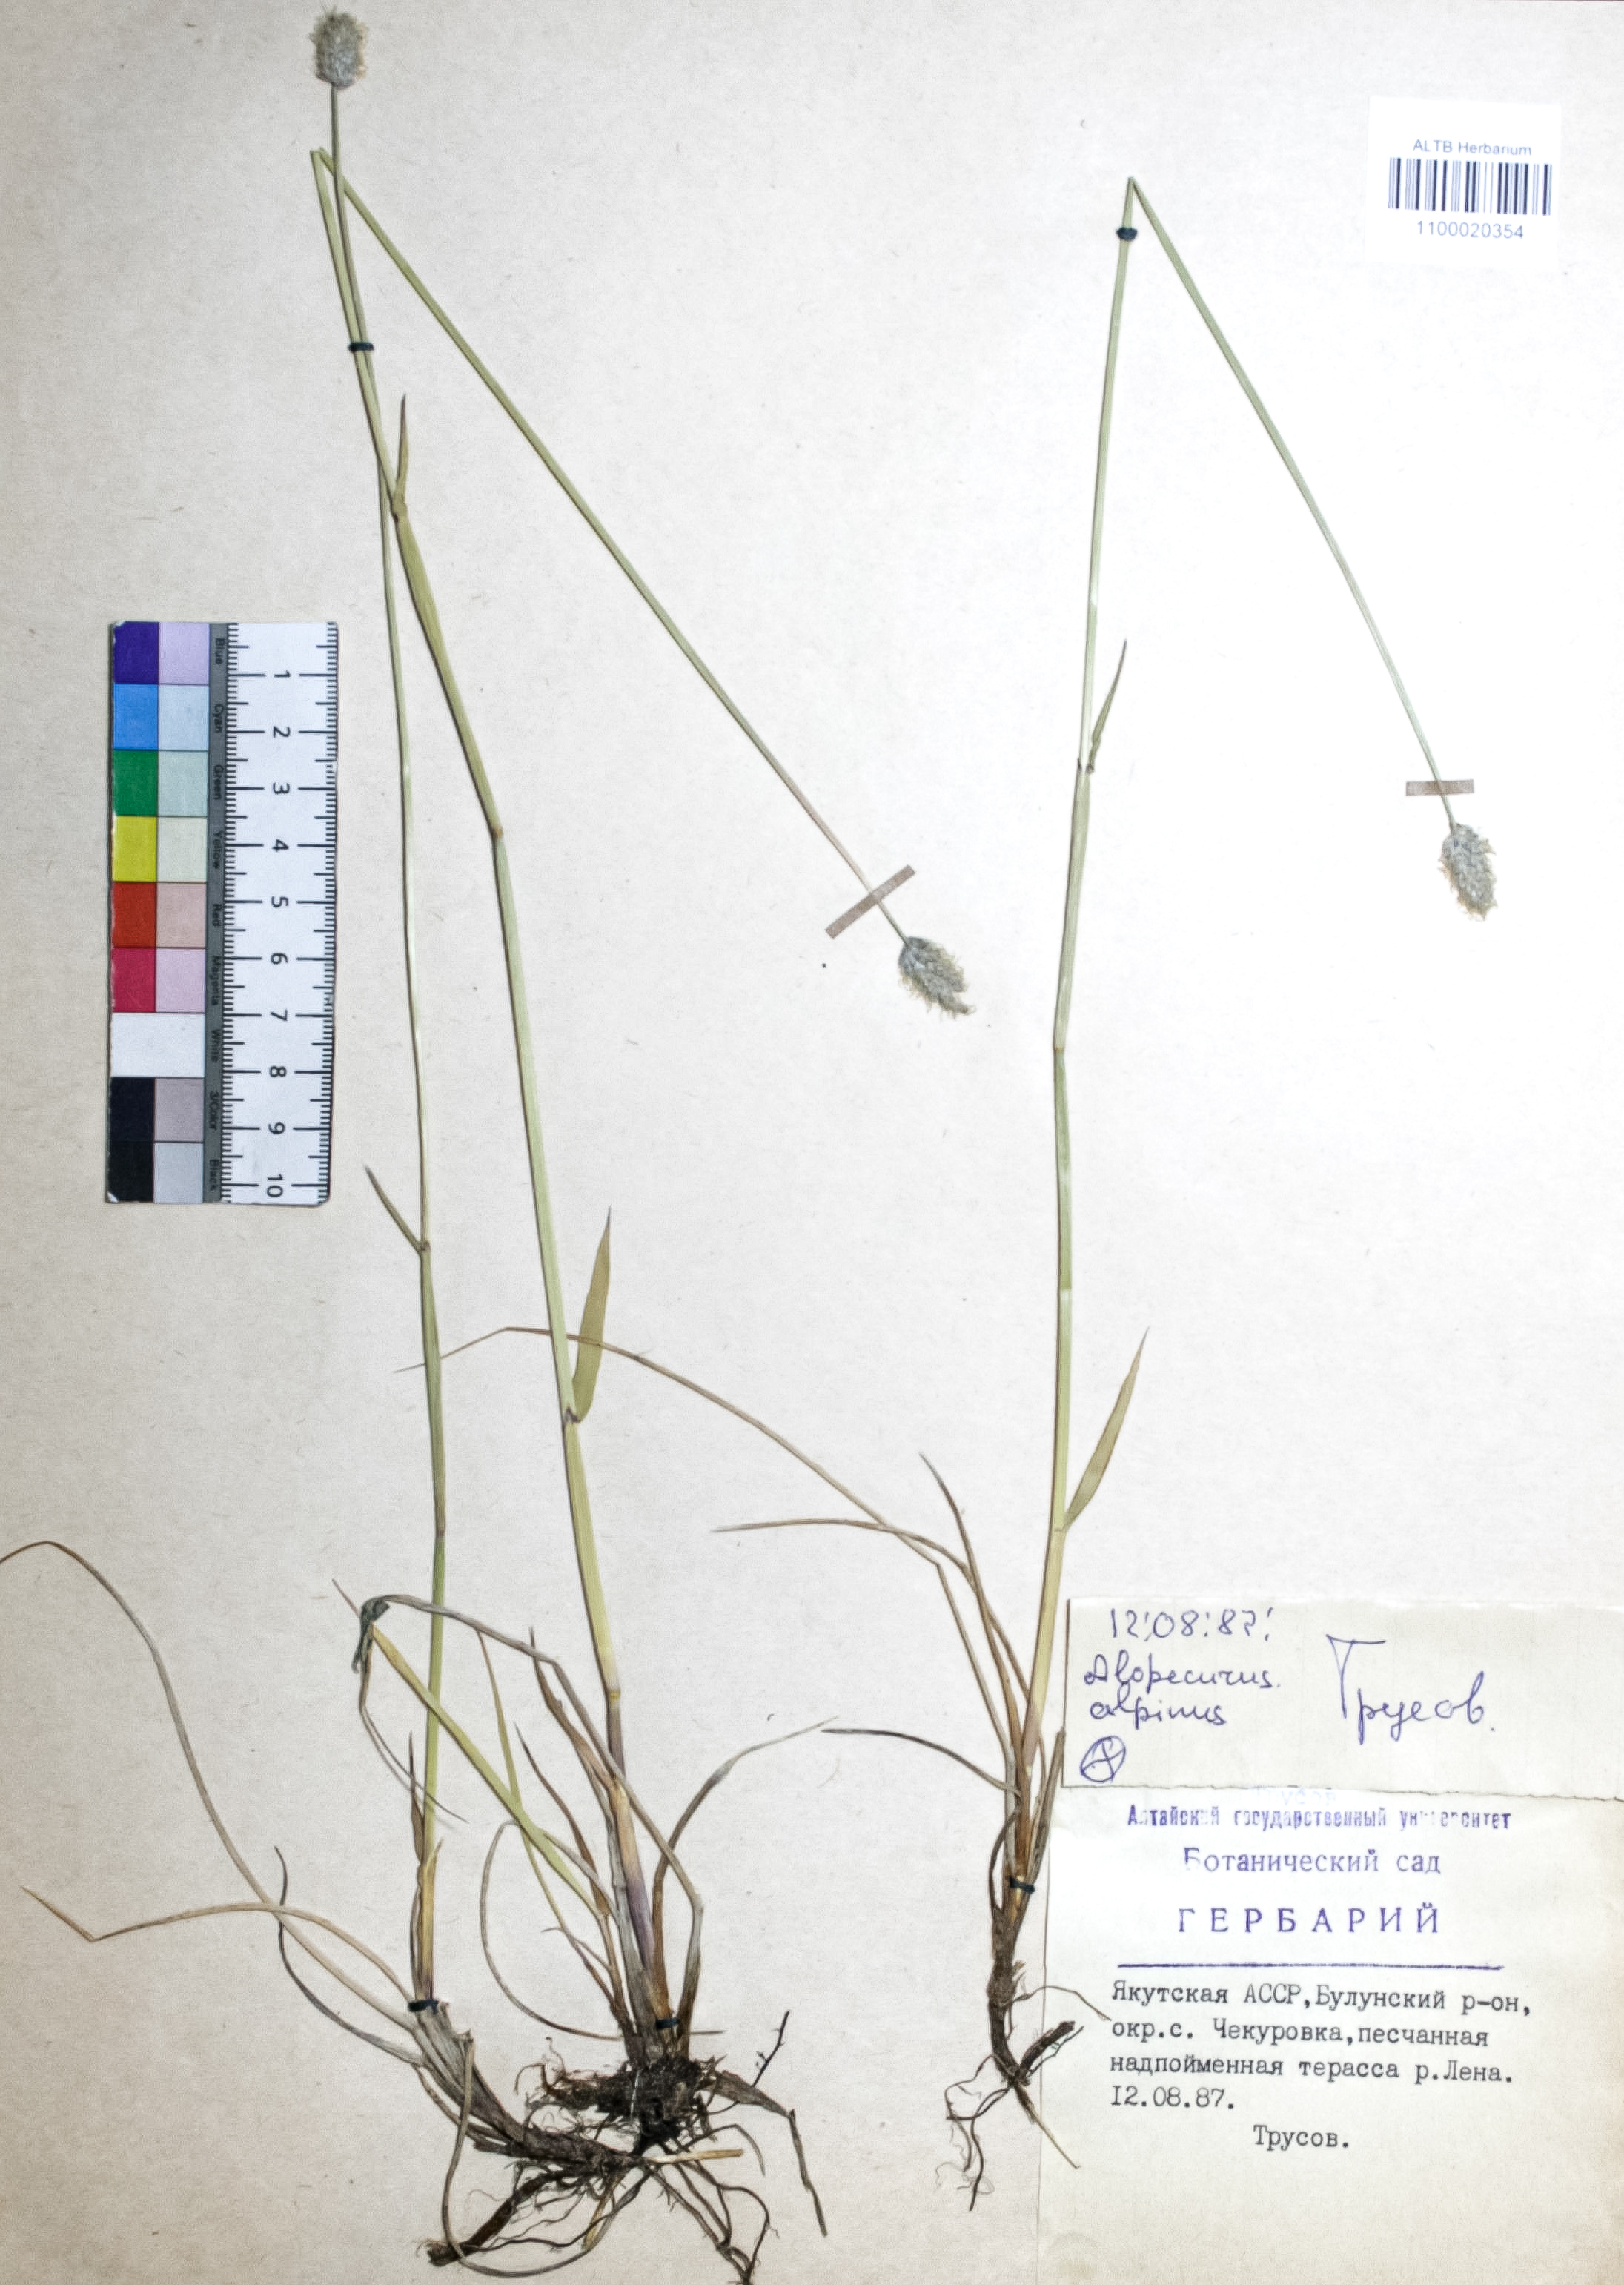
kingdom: Plantae
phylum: Tracheophyta
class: Liliopsida
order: Poales
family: Poaceae
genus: Alopecurus
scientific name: Alopecurus magellanicus
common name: Alpine foxtail
